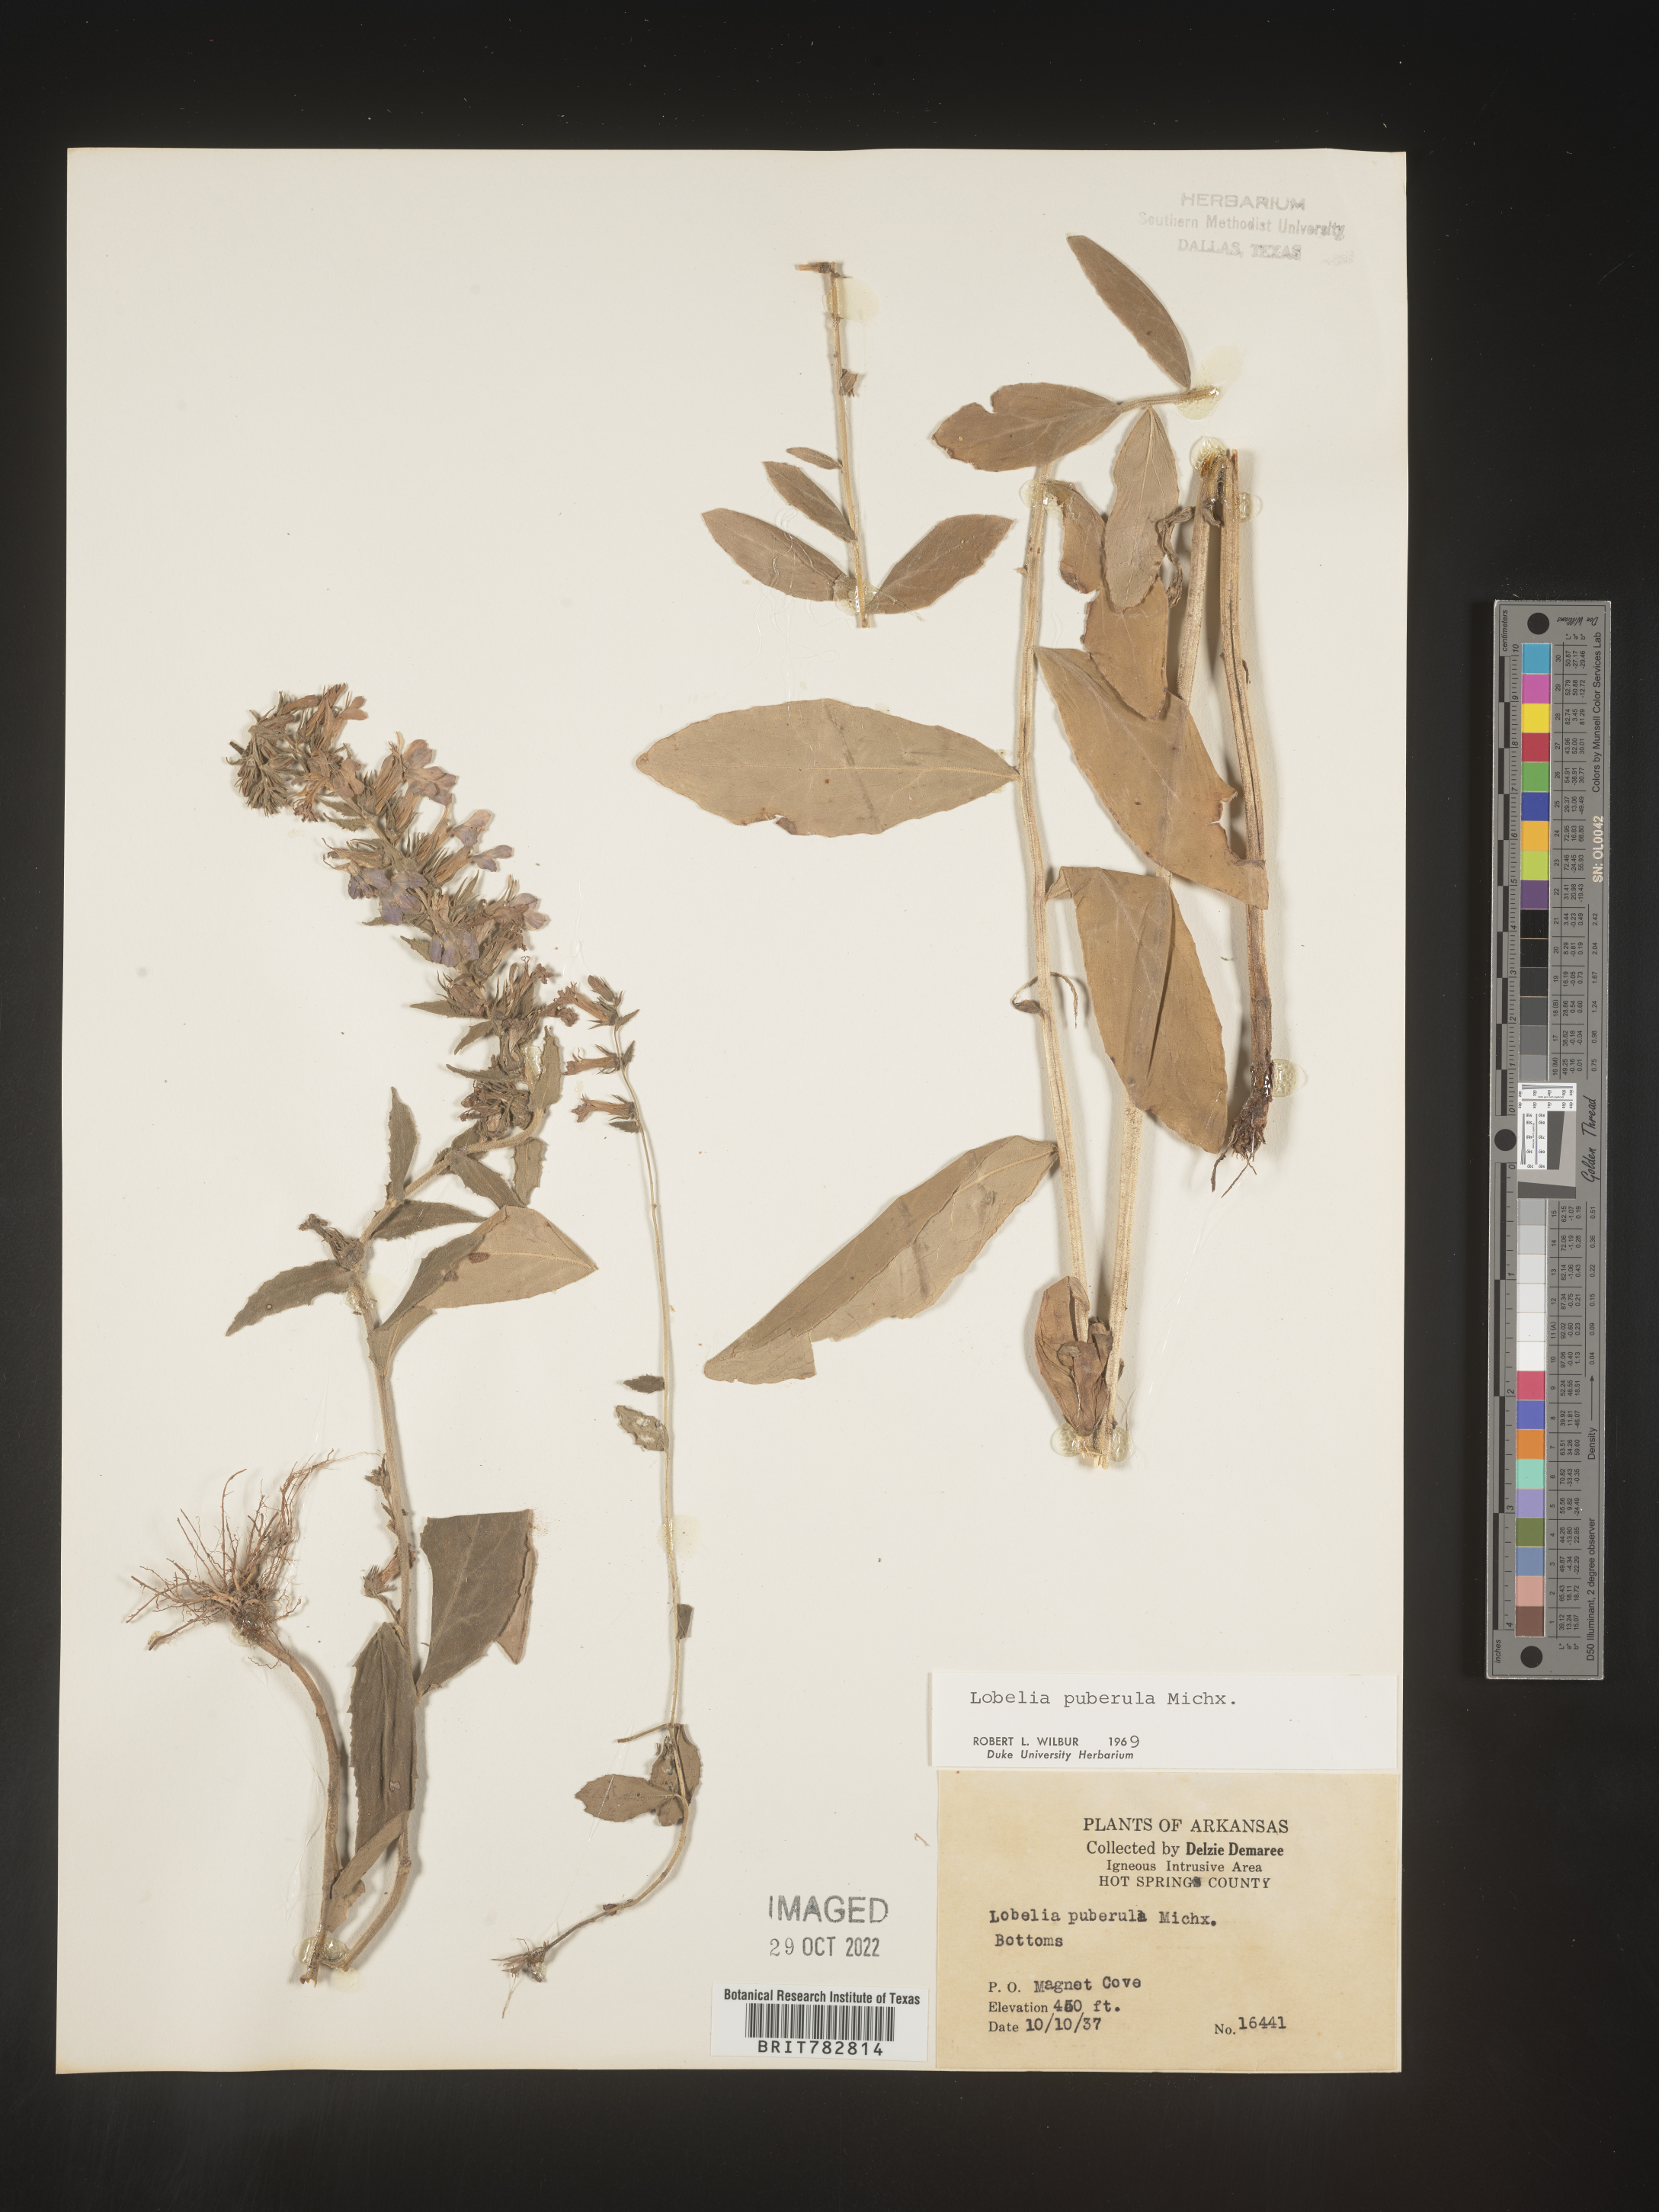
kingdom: Plantae
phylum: Tracheophyta
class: Magnoliopsida
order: Asterales
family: Campanulaceae
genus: Lobelia
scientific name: Lobelia puberula
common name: Purple dewdrop
